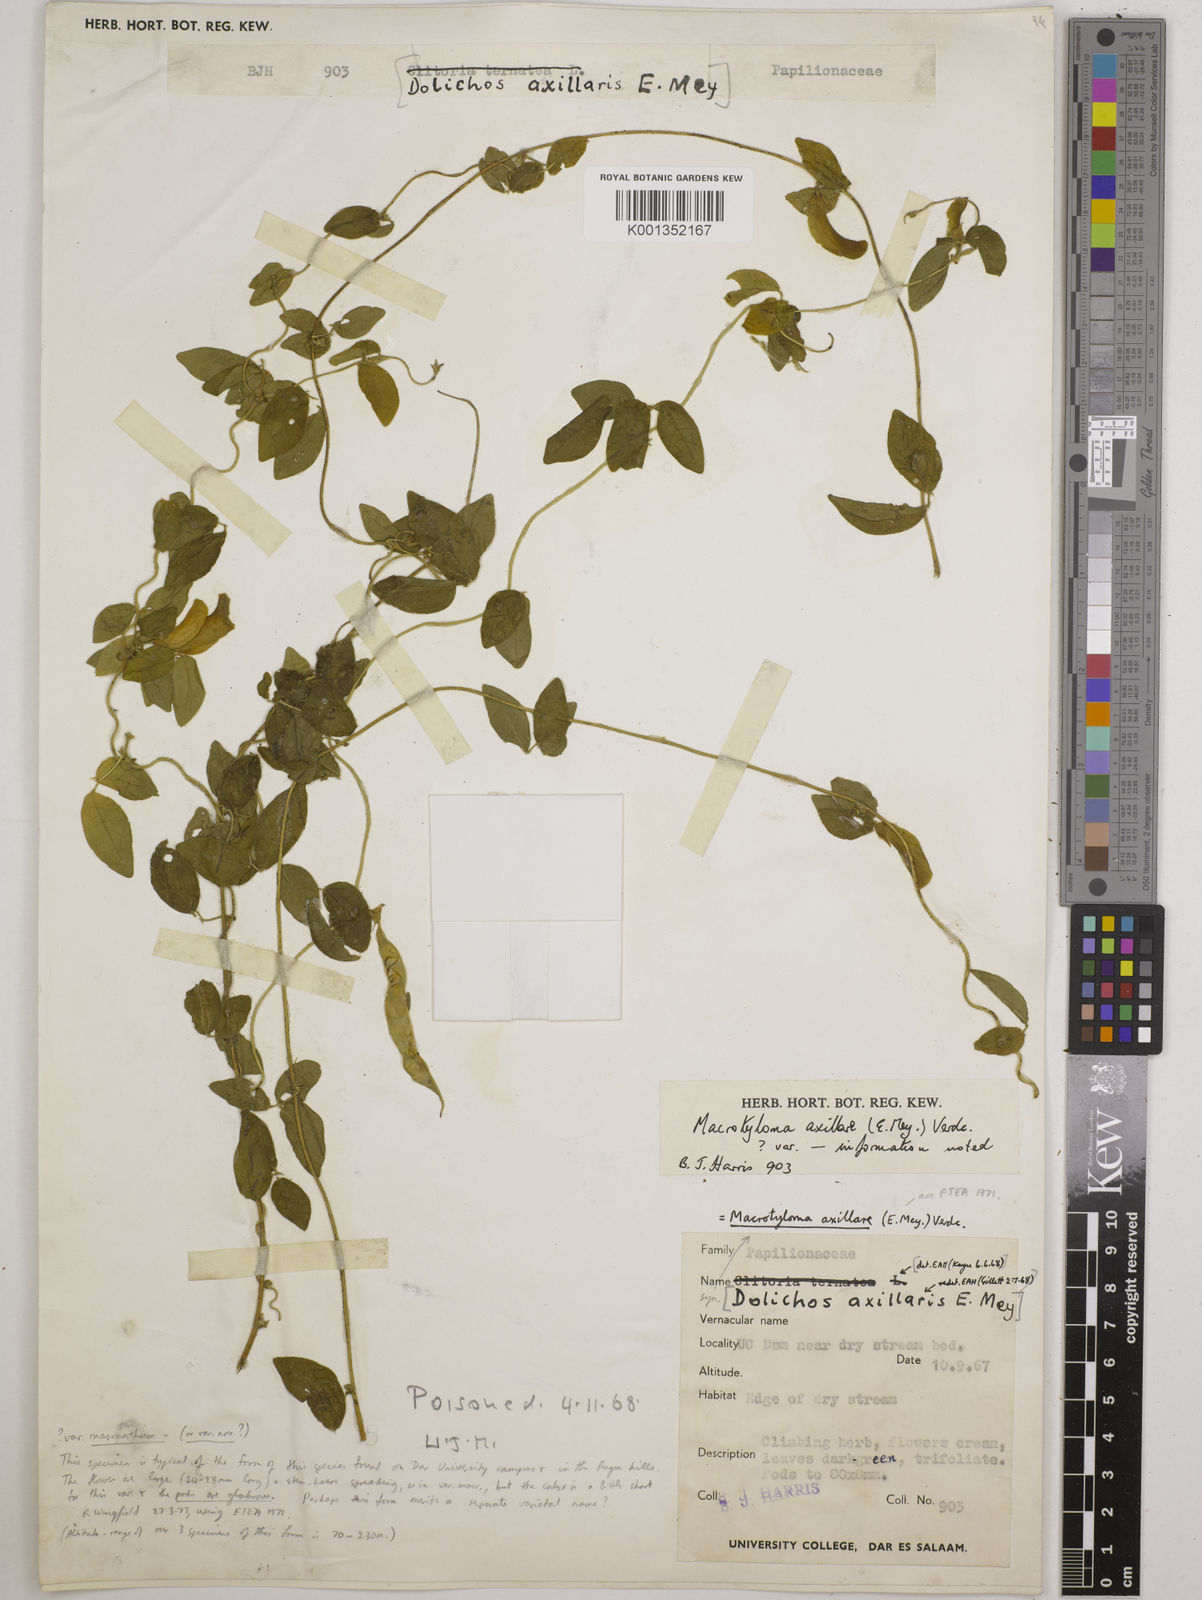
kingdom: Plantae
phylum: Tracheophyta
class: Magnoliopsida
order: Fabales
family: Fabaceae
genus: Macrotyloma
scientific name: Macrotyloma axillare
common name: Perennial horsegram
